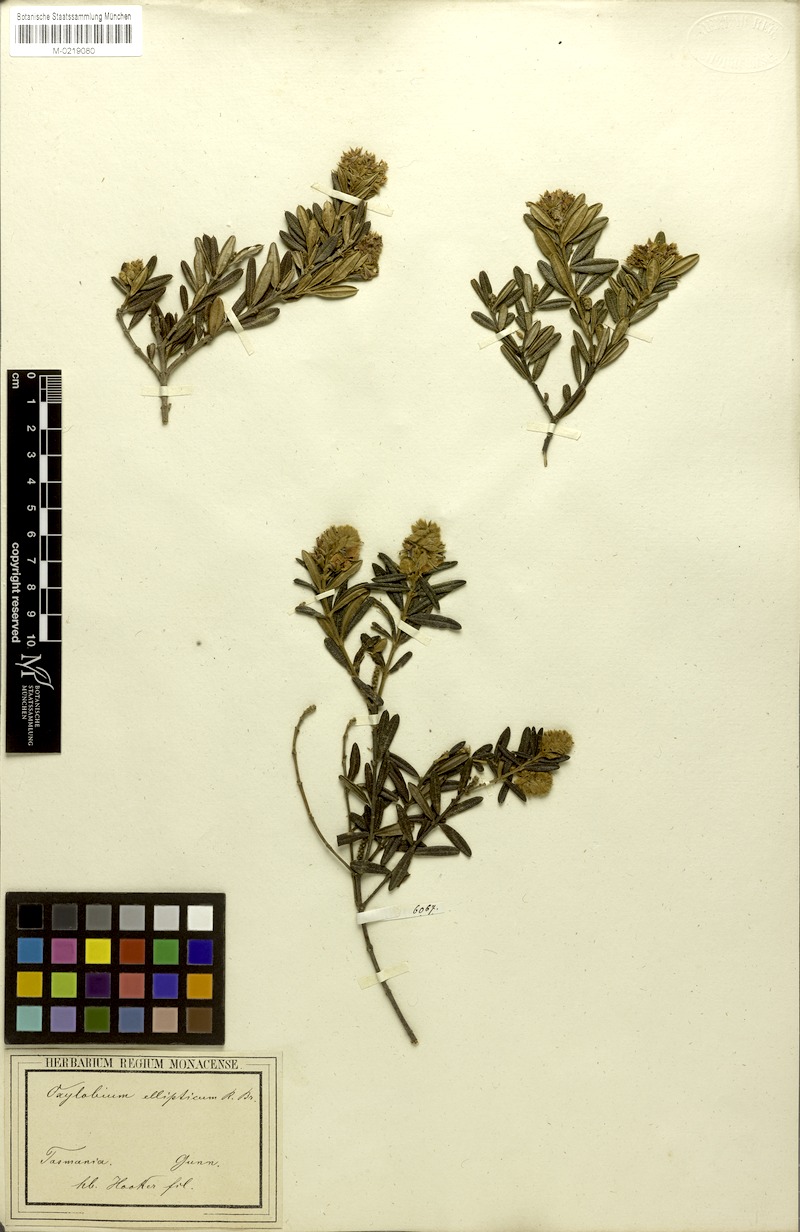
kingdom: Plantae
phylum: Tracheophyta
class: Magnoliopsida
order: Fabales
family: Fabaceae
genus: Oxylobium
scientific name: Oxylobium ellipticum
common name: Golden shaggy-pea
